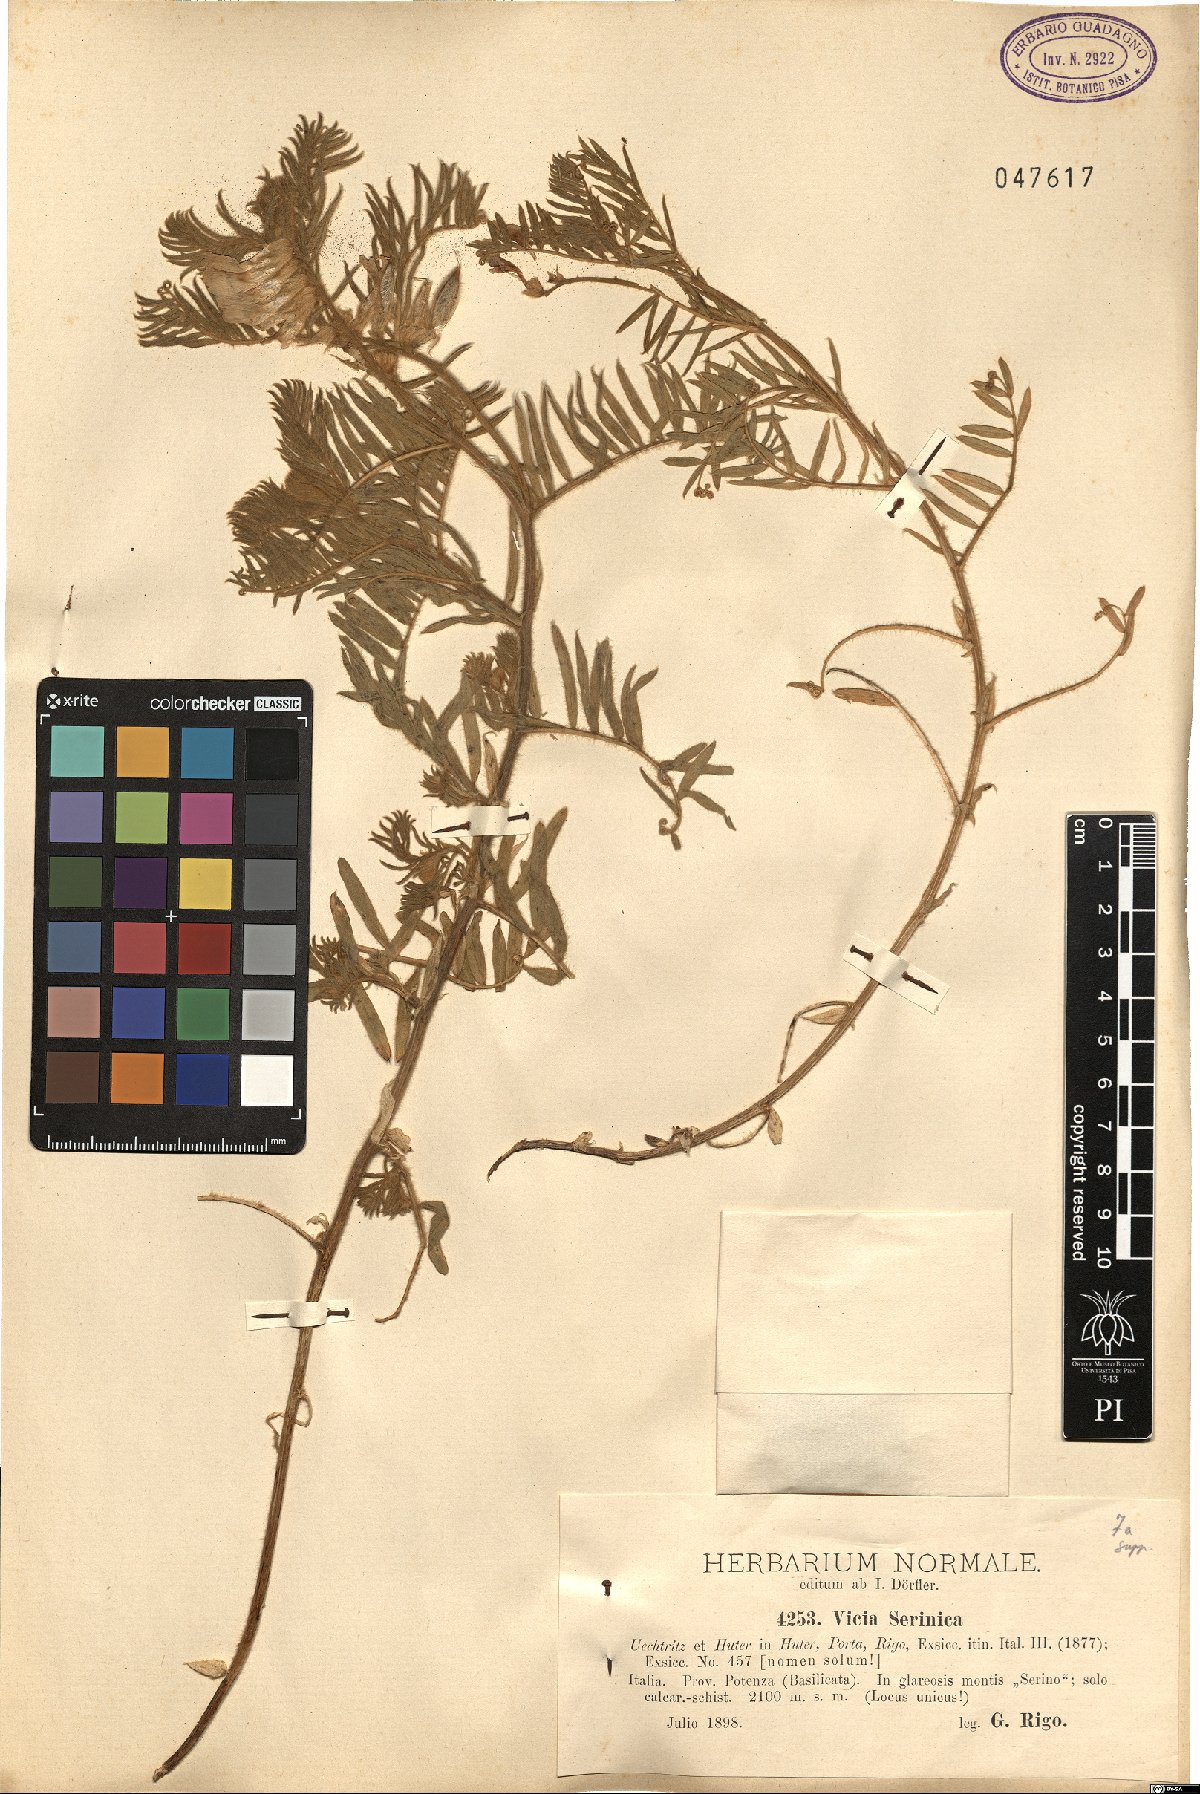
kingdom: Plantae
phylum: Tracheophyta
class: Magnoliopsida
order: Fabales
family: Fabaceae
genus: Vicia
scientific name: Vicia canescens
